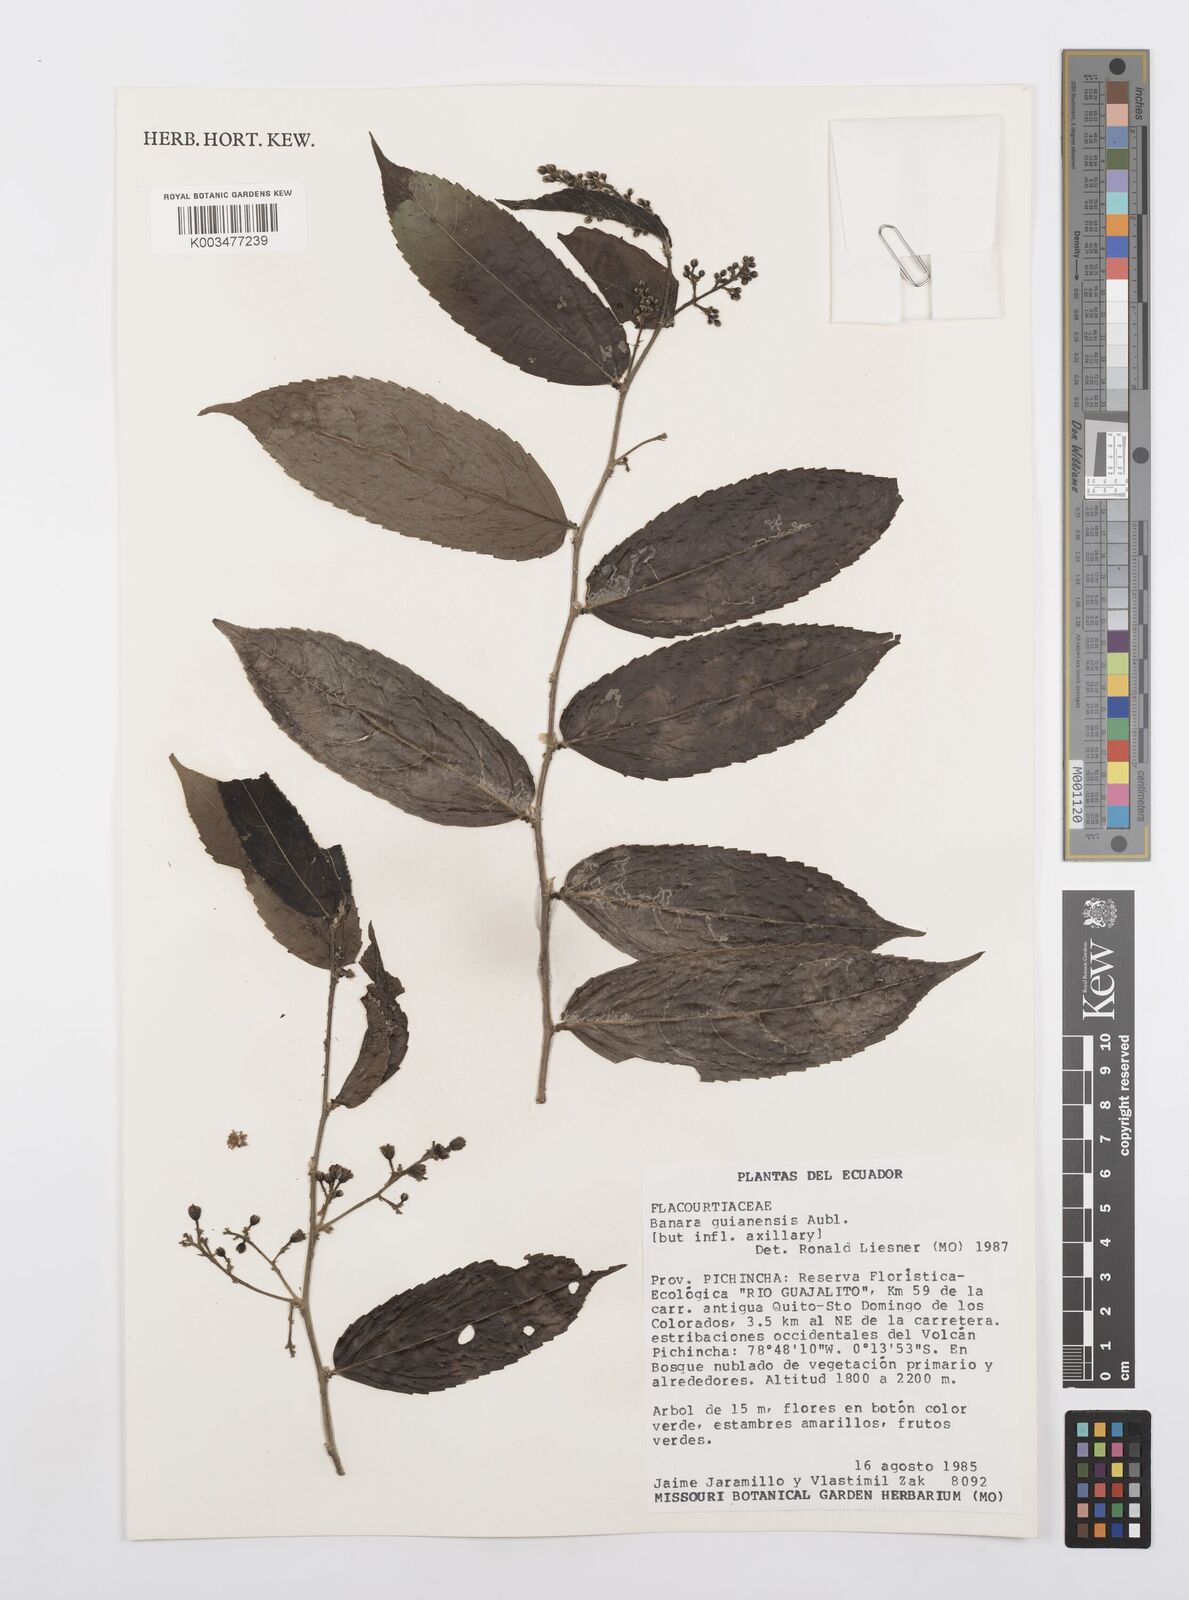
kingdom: Plantae
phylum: Tracheophyta
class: Magnoliopsida
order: Malpighiales
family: Salicaceae
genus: Banara
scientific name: Banara guianensis
